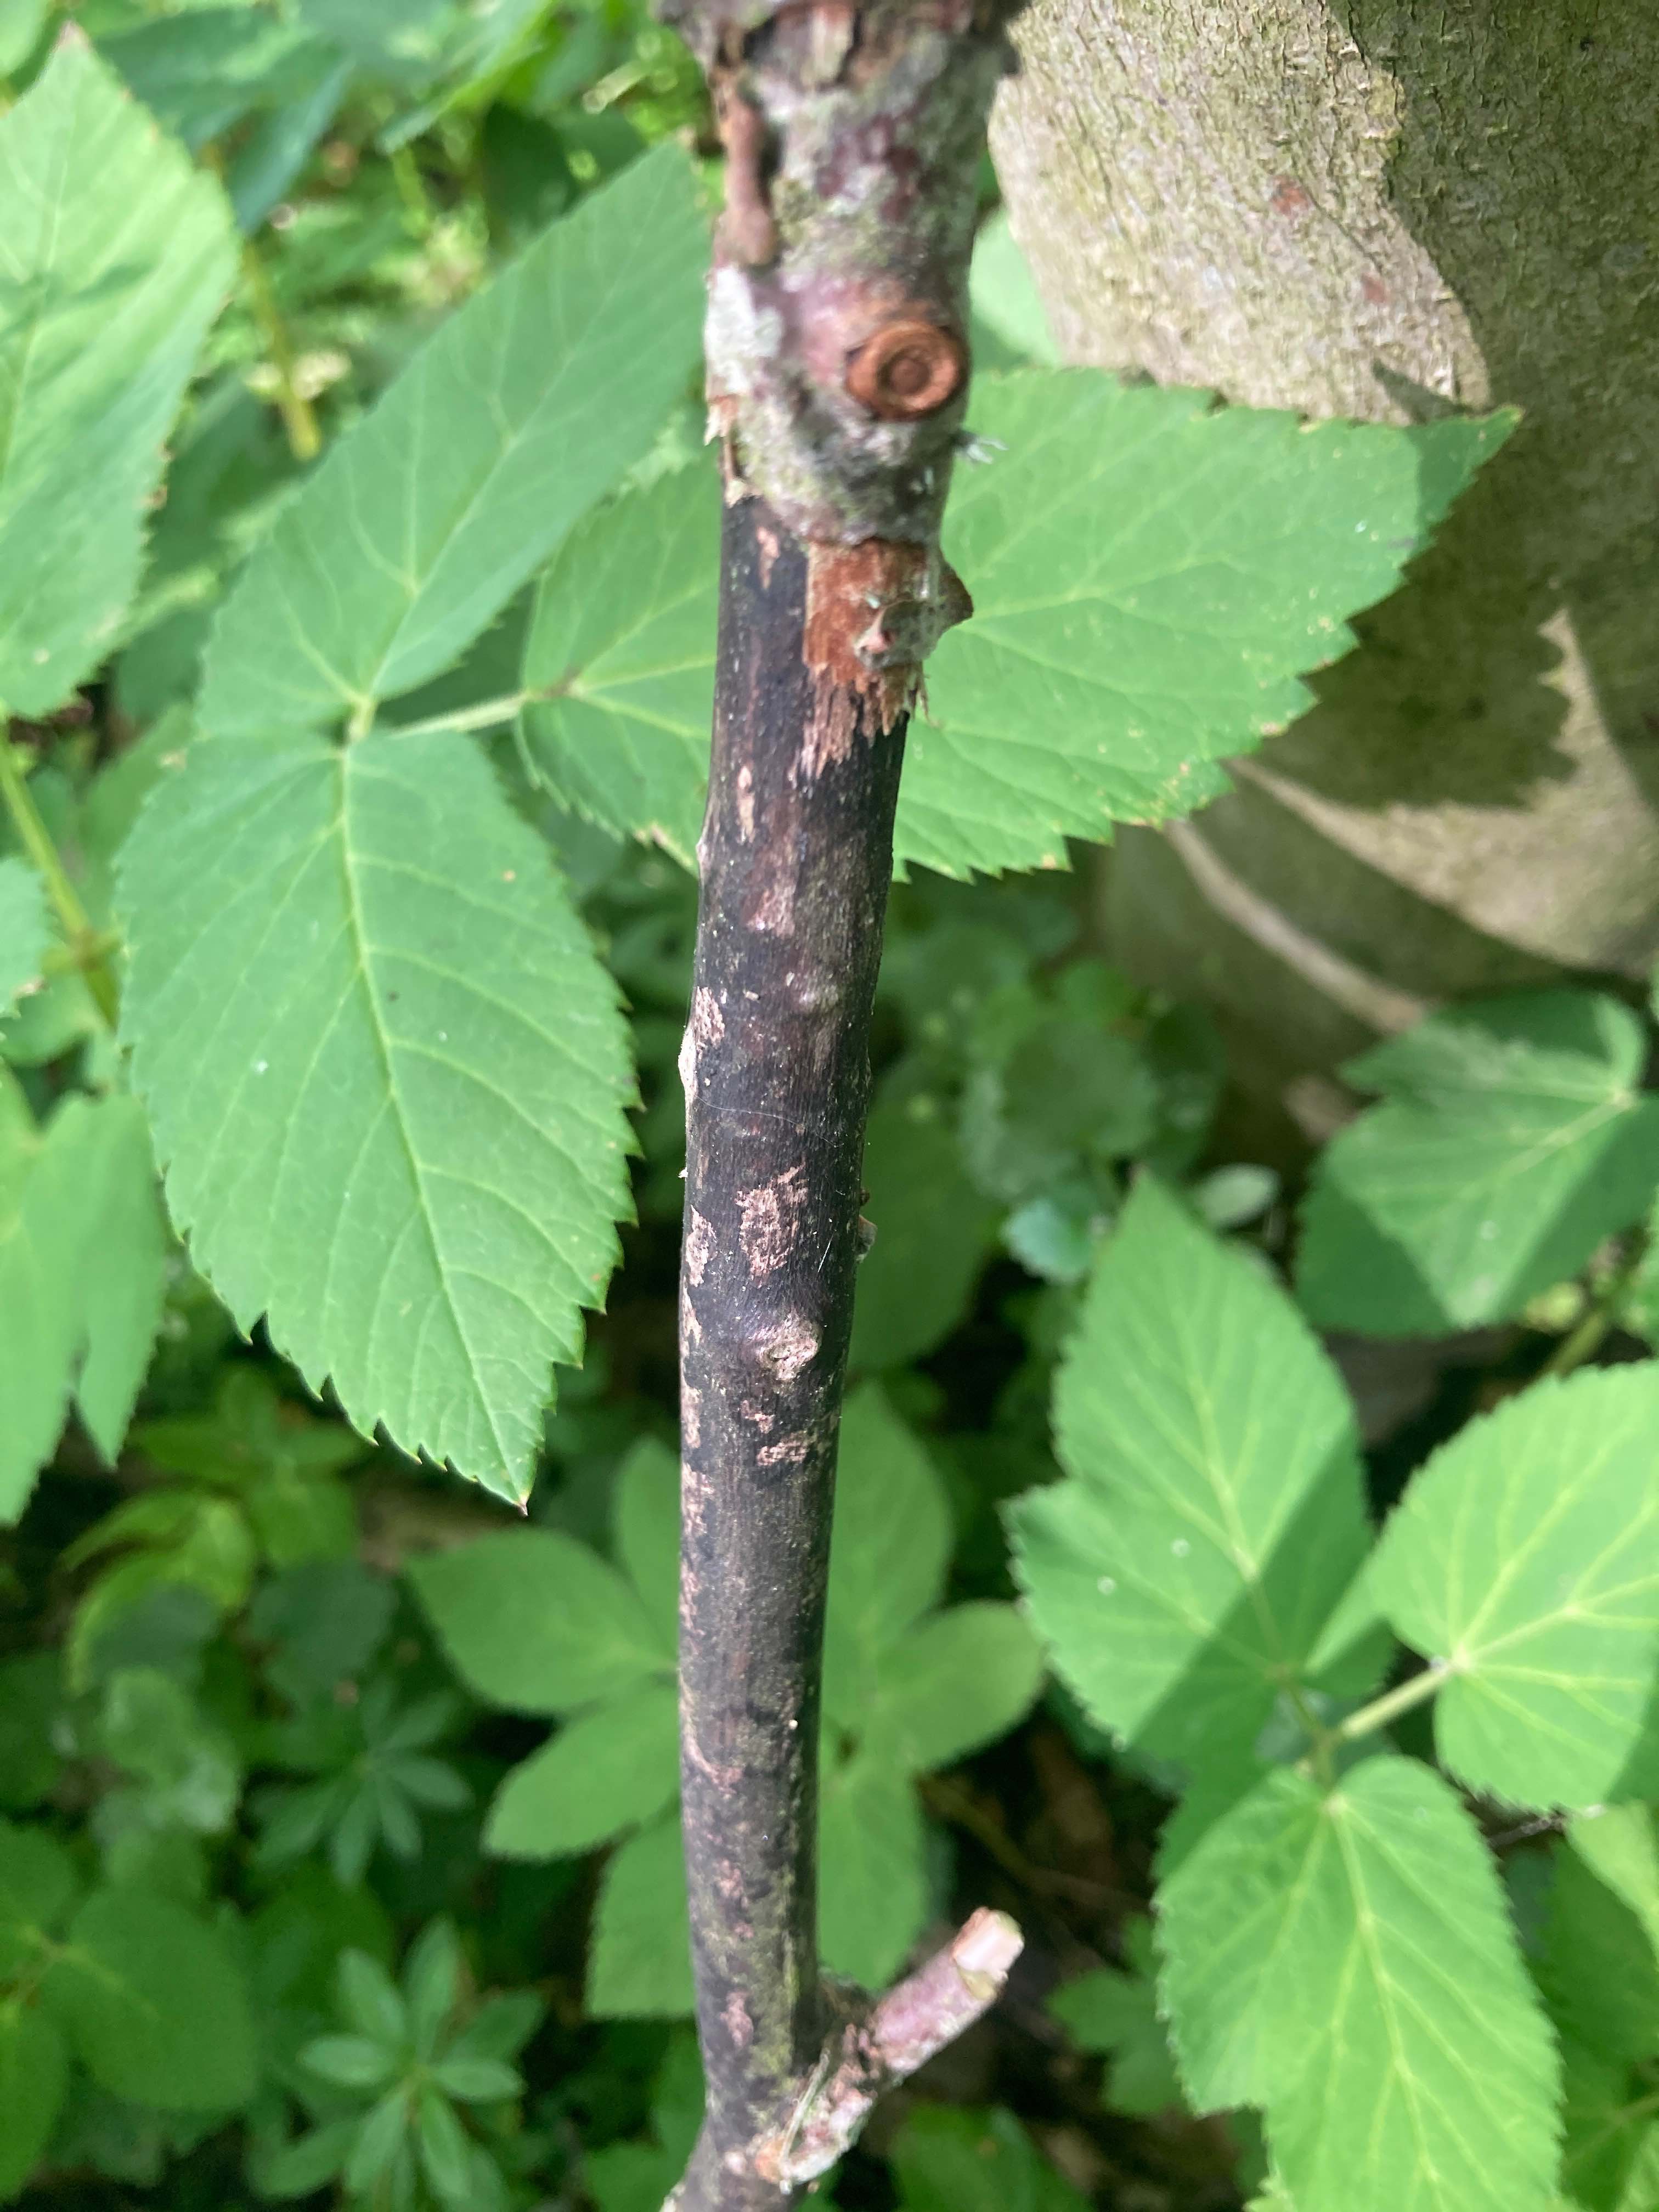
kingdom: Fungi
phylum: Ascomycota
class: Sordariomycetes
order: Xylariales
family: Diatrypaceae
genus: Eutypa
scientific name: Eutypa maura
